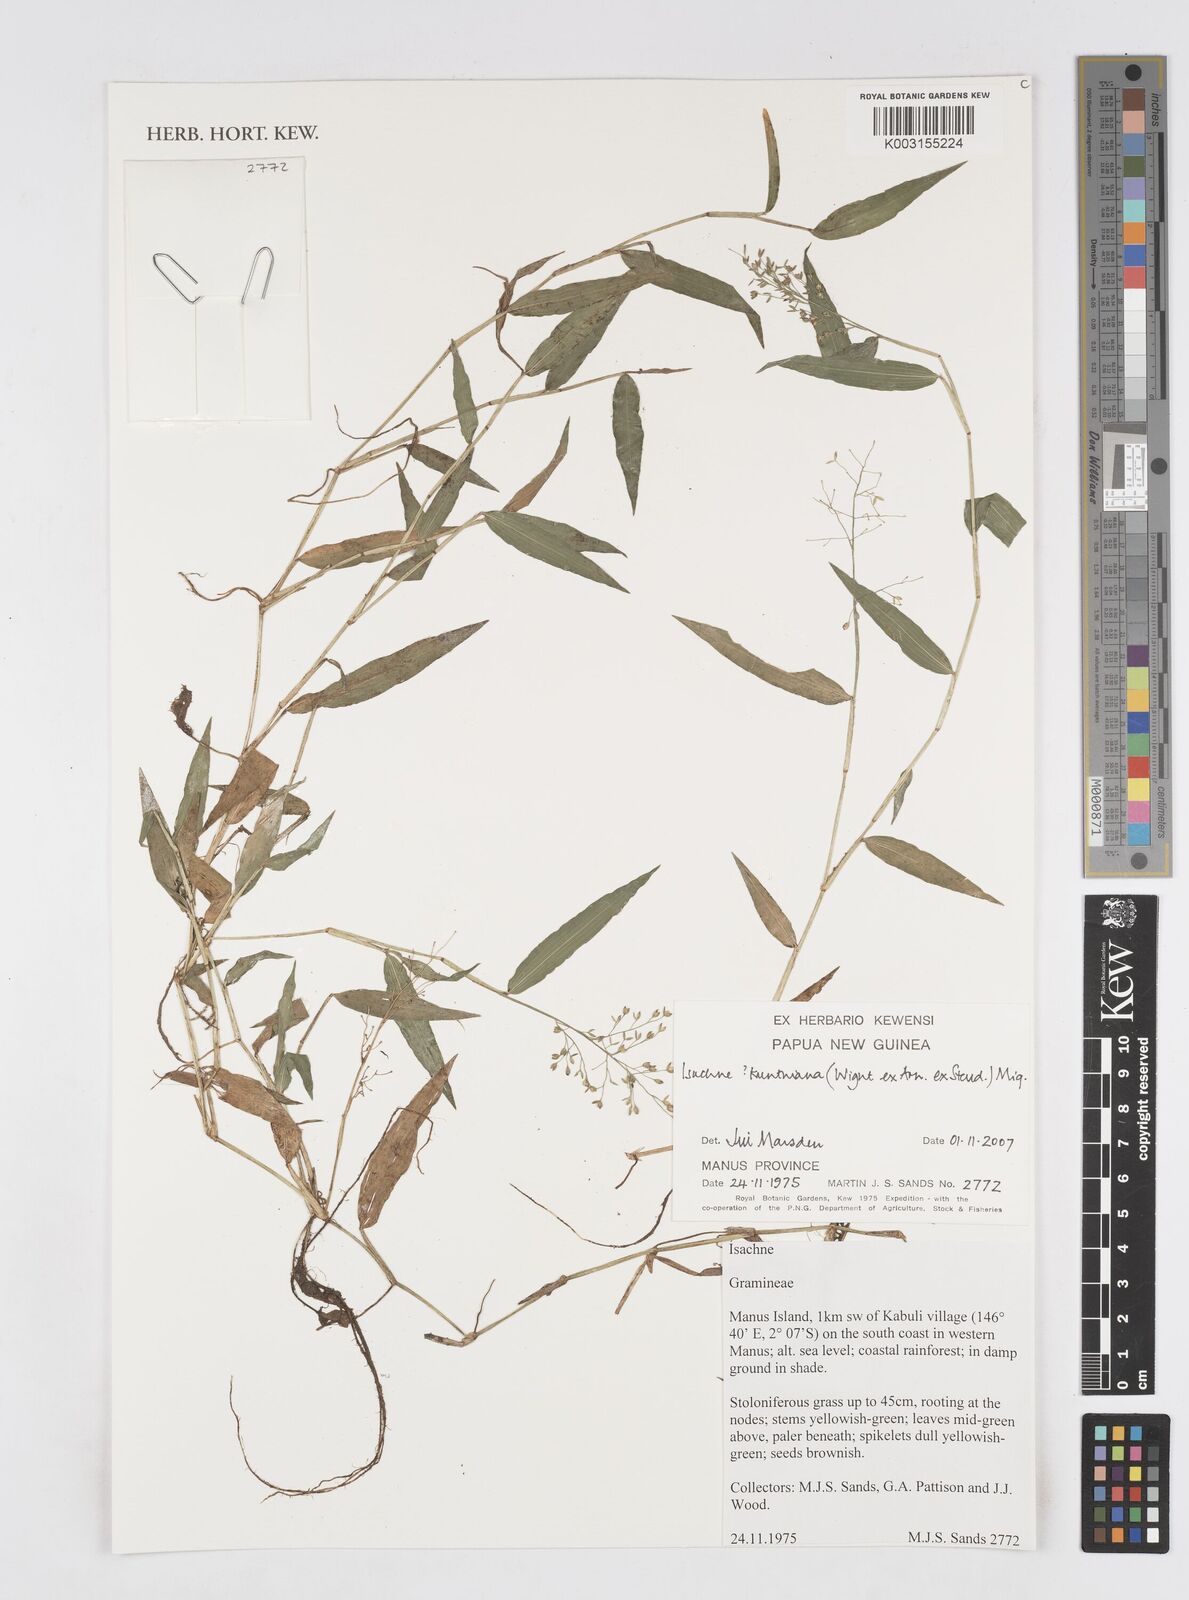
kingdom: Plantae
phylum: Tracheophyta
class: Liliopsida
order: Poales
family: Poaceae
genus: Isachne
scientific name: Isachne kunthiana
